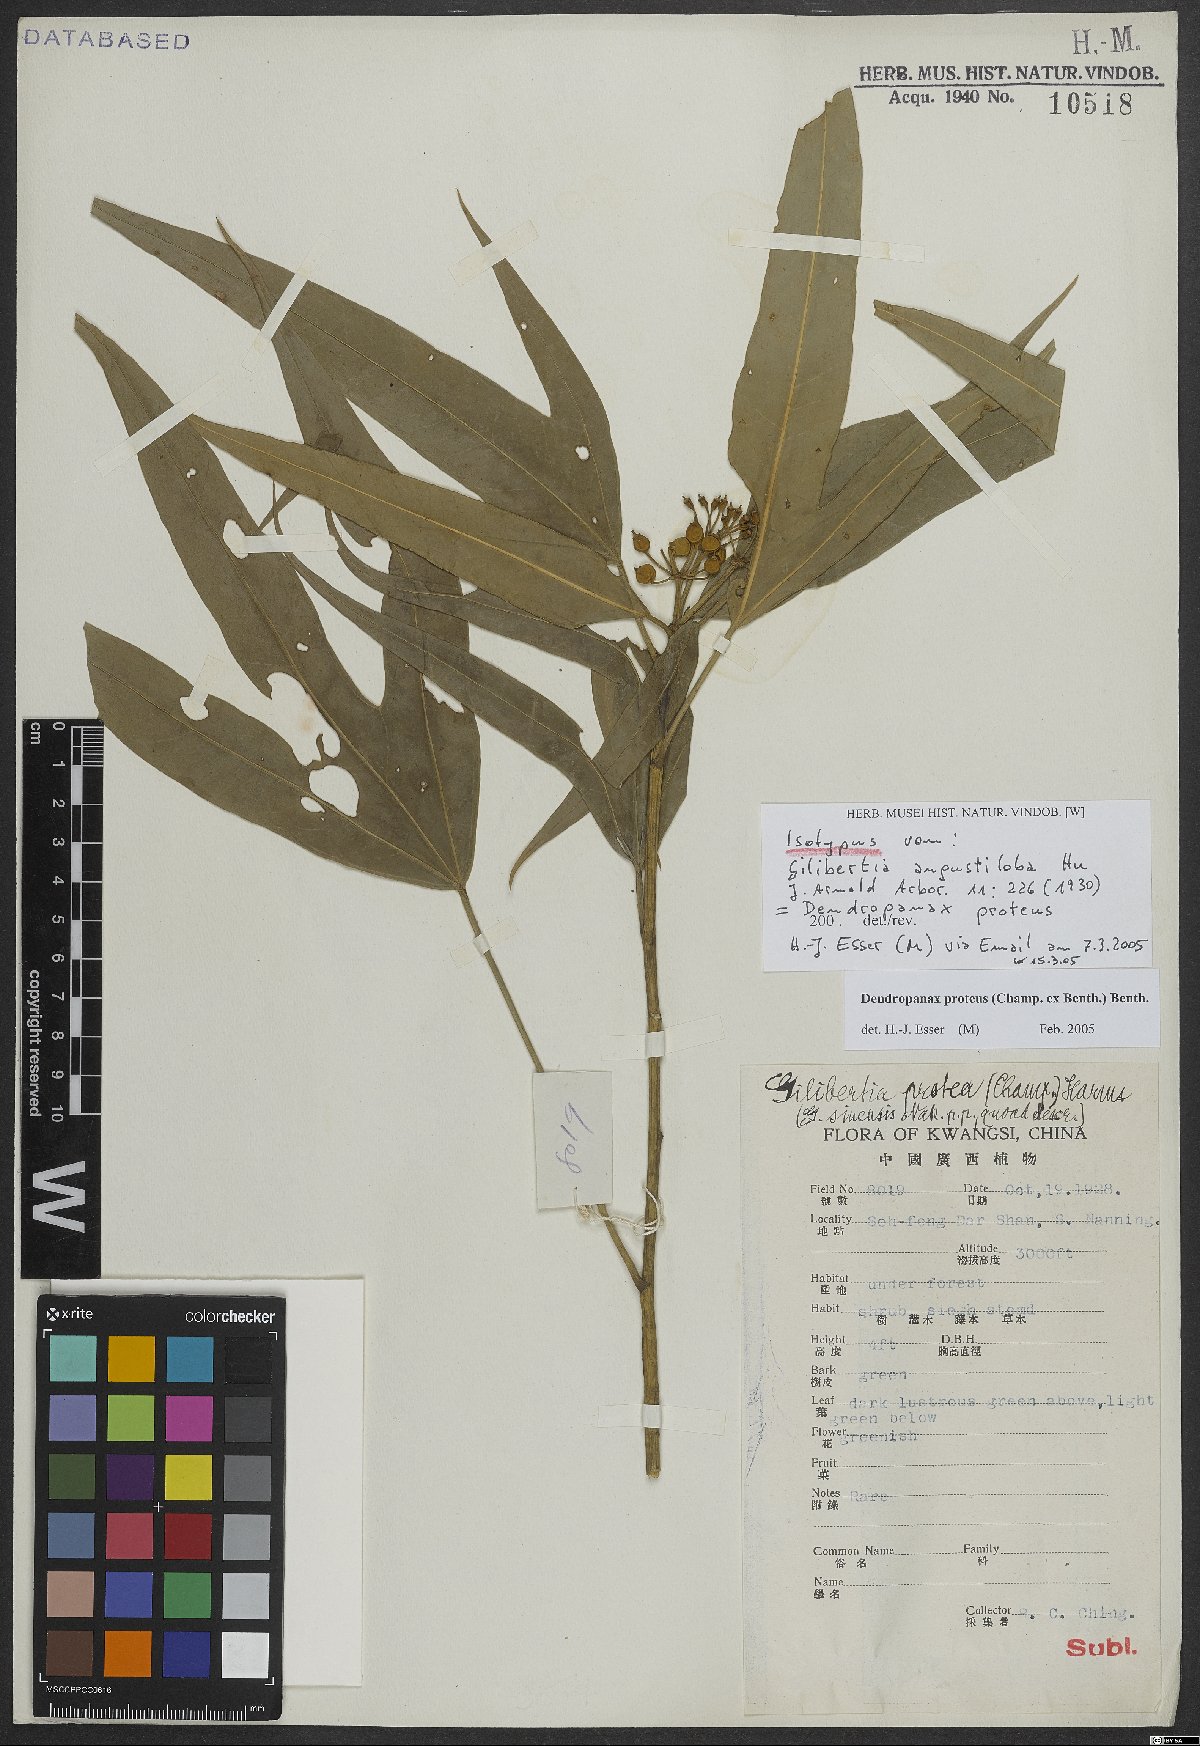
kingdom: Plantae
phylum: Tracheophyta
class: Magnoliopsida
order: Apiales
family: Araliaceae
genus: Dendropanax
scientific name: Dendropanax proteus
